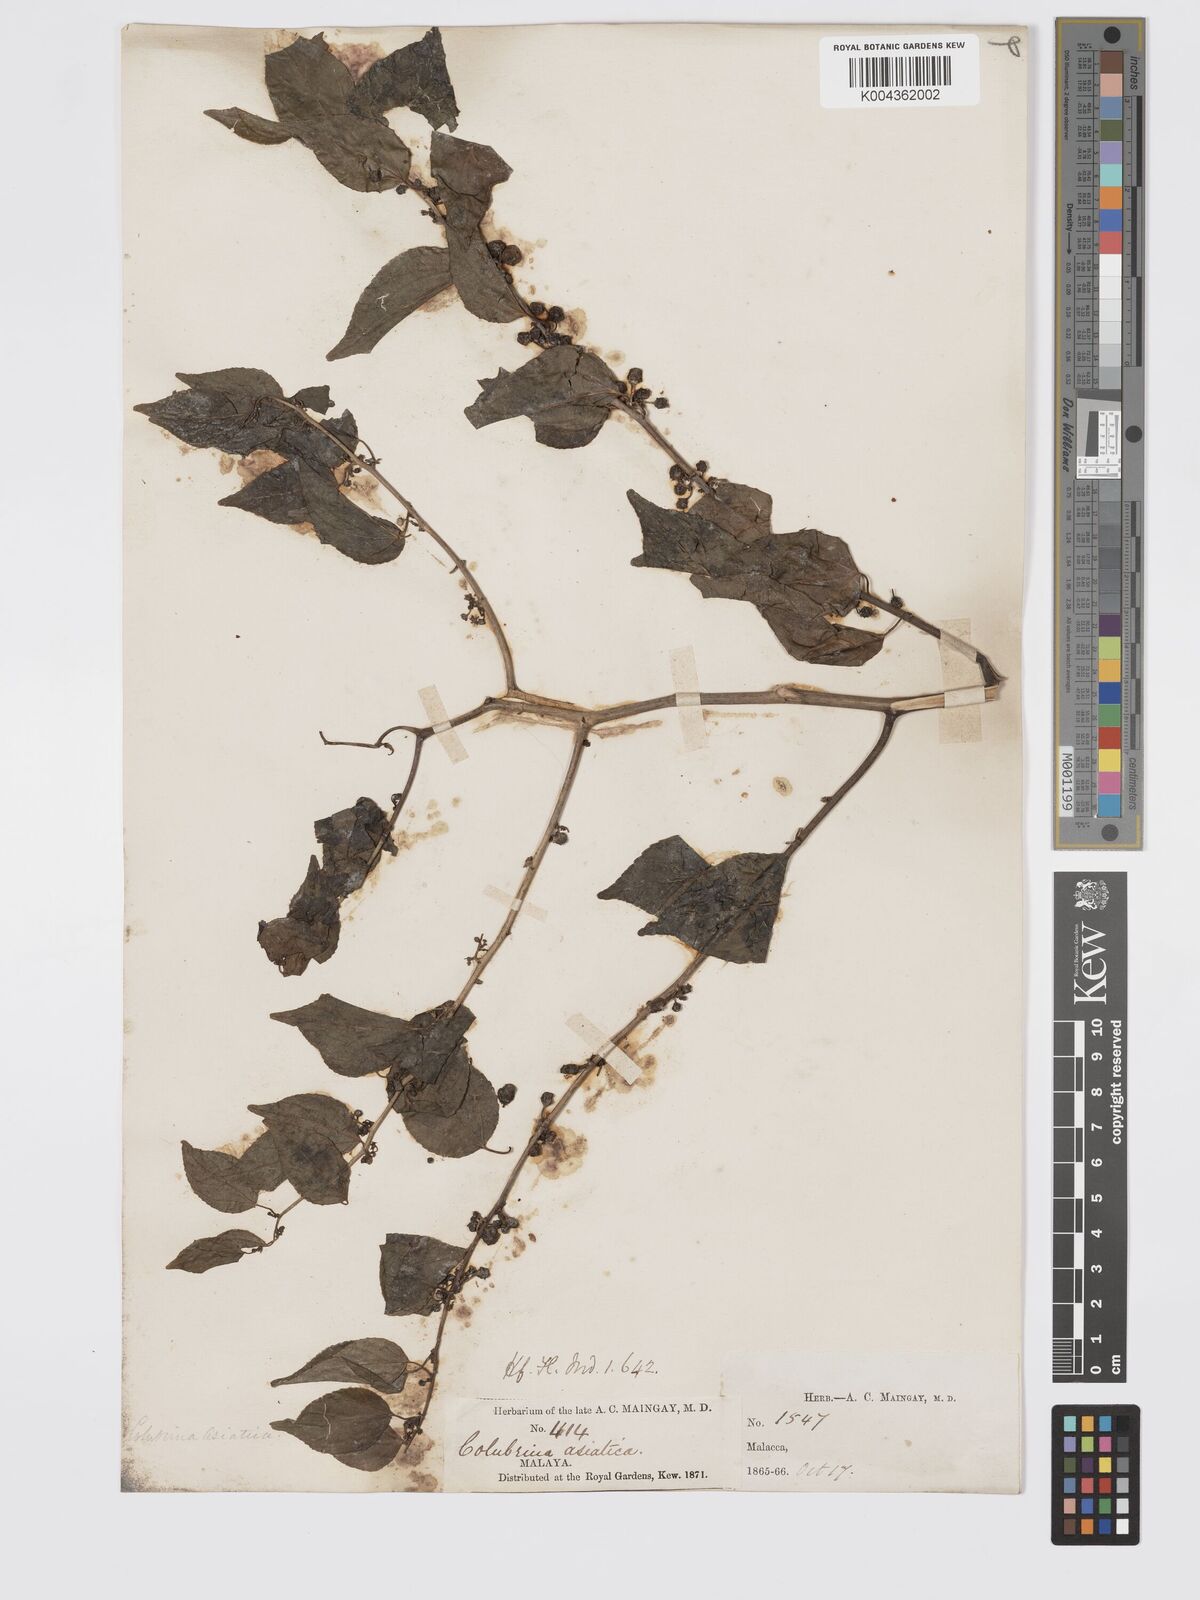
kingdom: Plantae
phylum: Tracheophyta
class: Magnoliopsida
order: Rosales
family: Rhamnaceae
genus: Colubrina
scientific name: Colubrina asiatica
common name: Asian nakedwood
